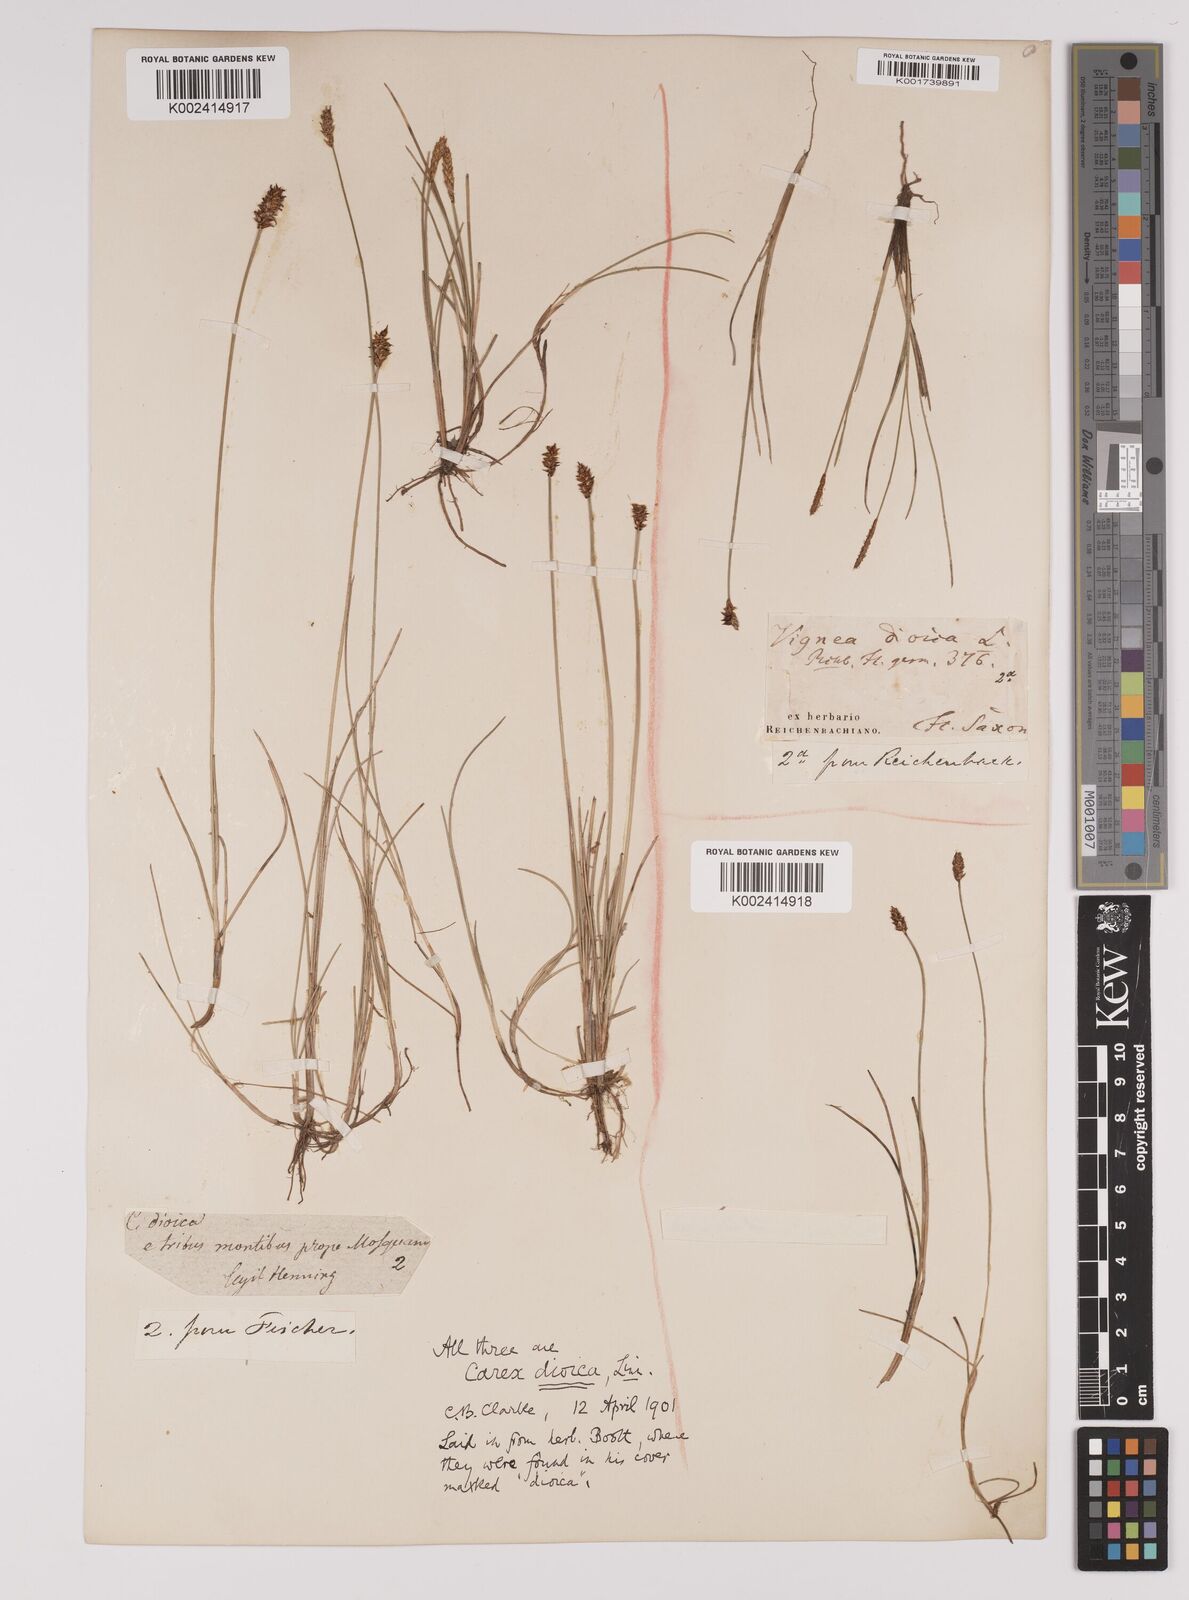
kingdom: Plantae
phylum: Tracheophyta
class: Liliopsida
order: Poales
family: Cyperaceae
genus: Carex
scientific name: Carex dioica
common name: Dioecious sedge
